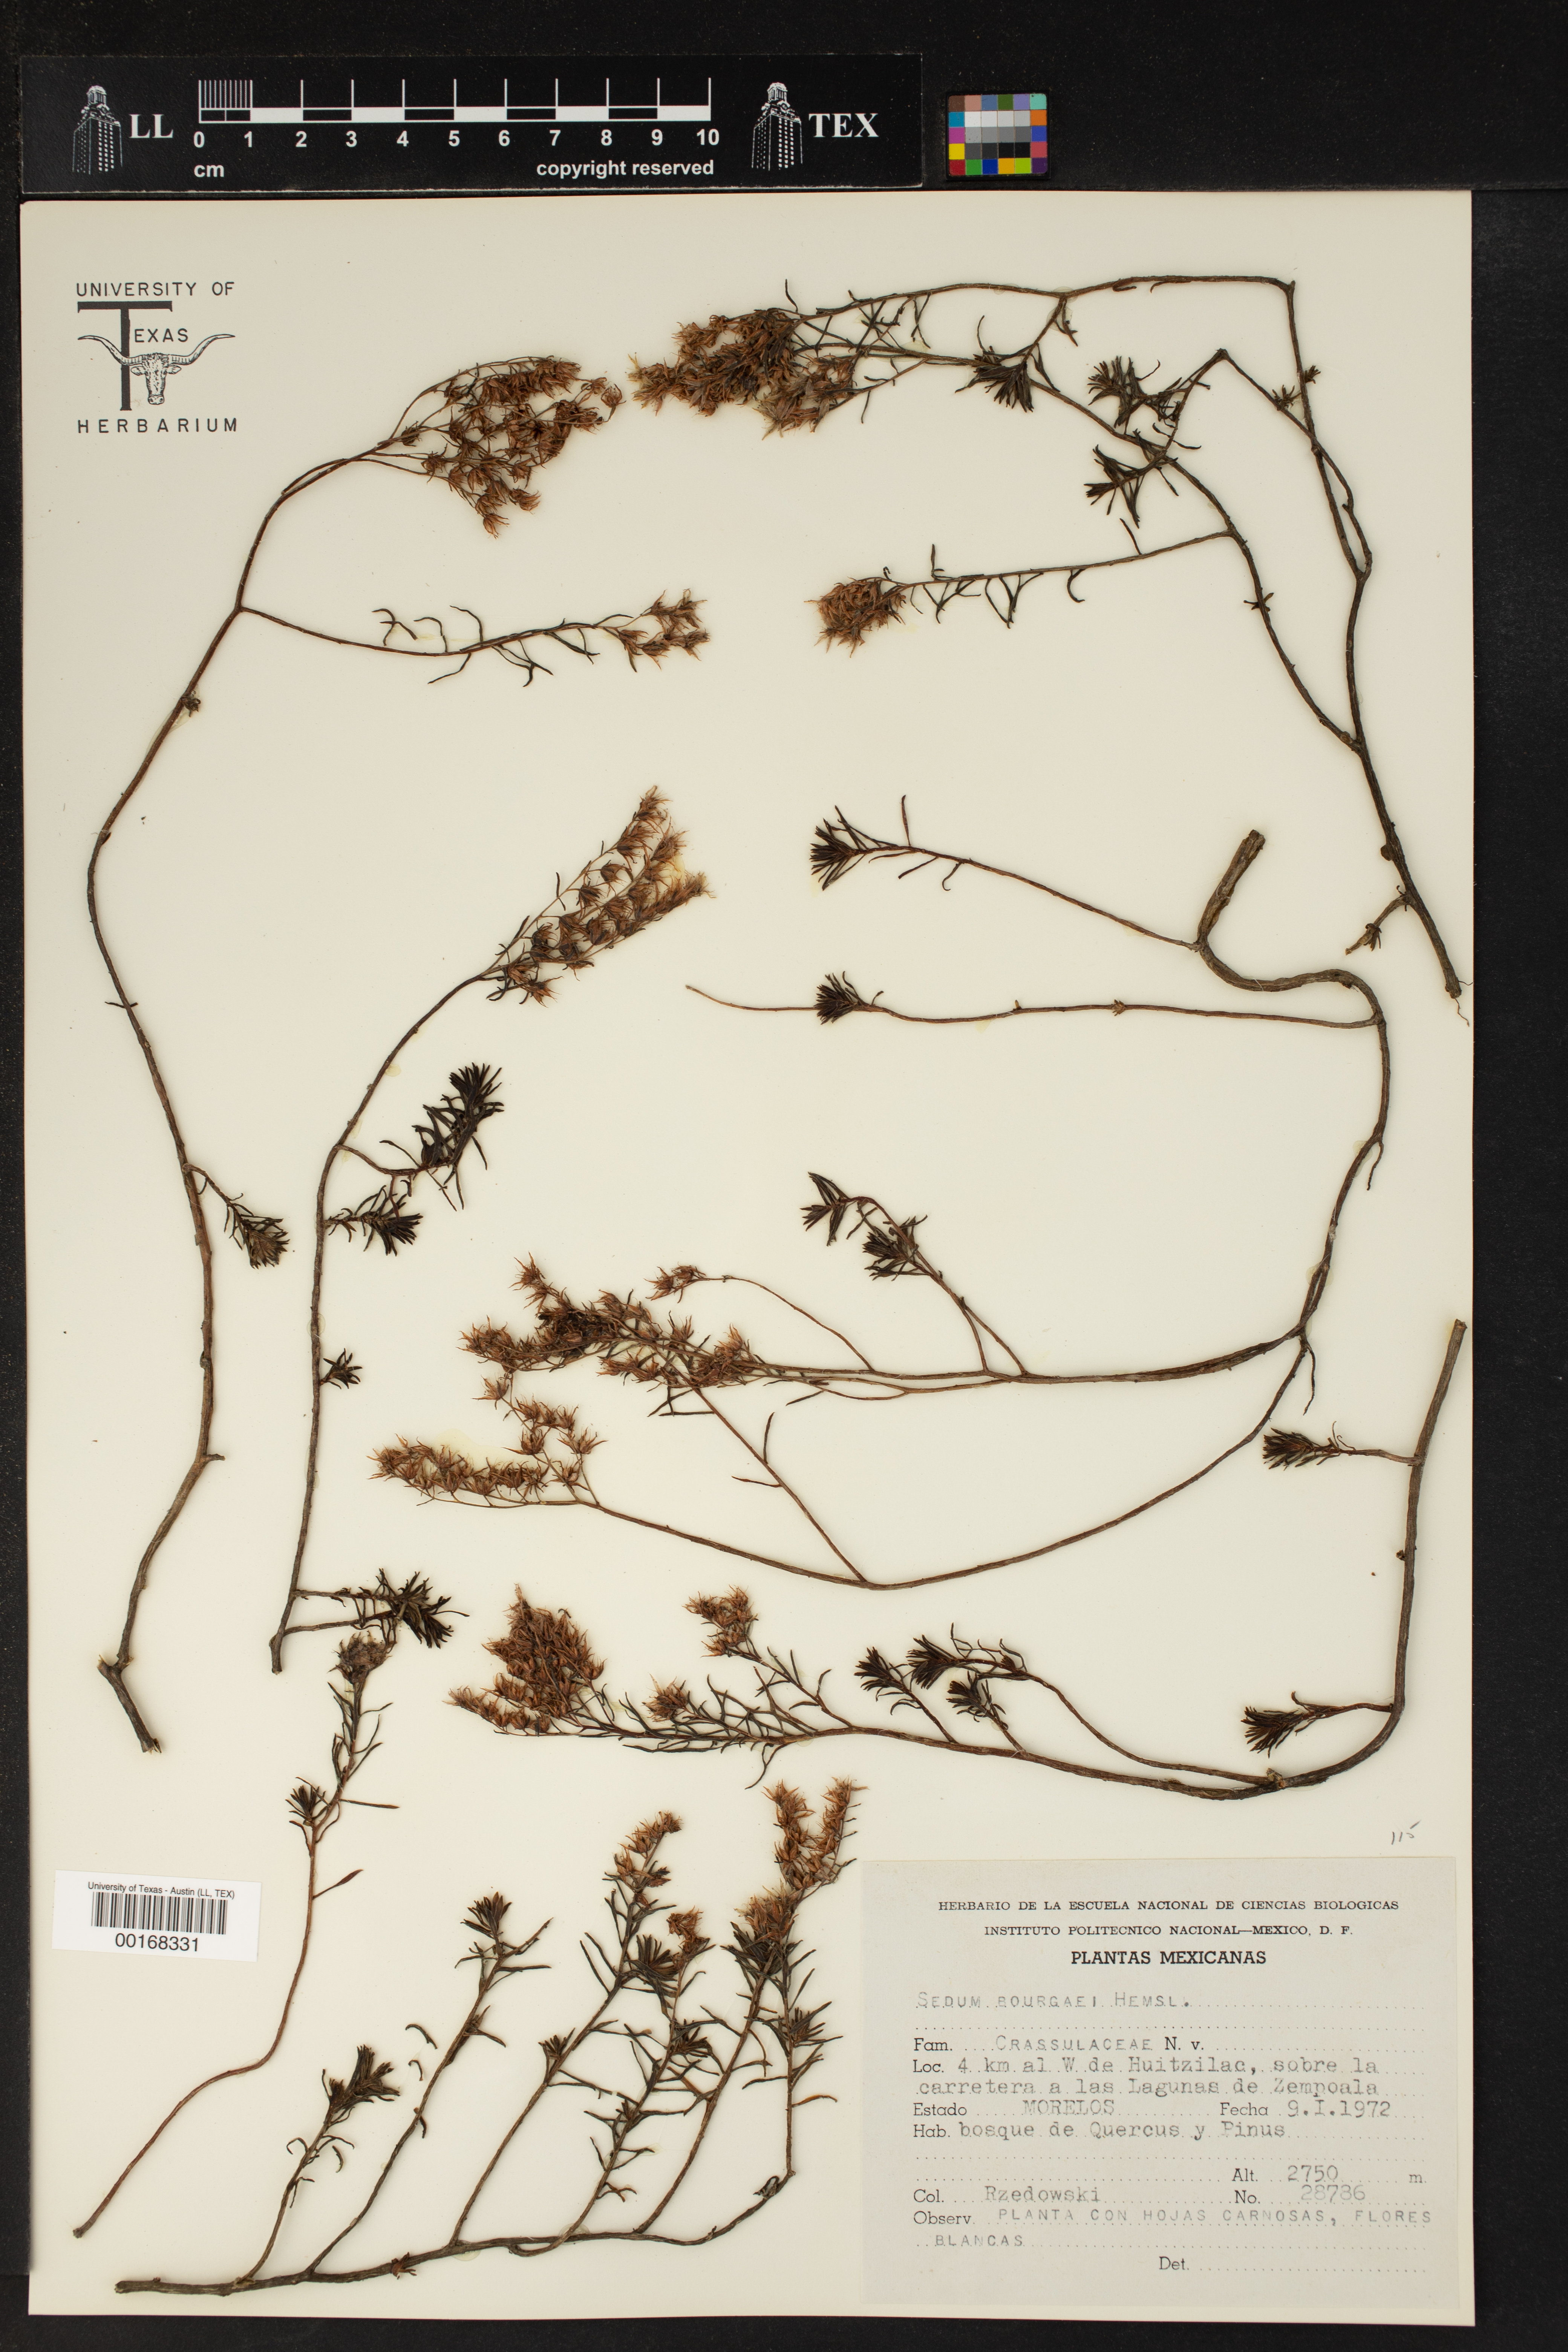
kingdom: Plantae
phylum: Tracheophyta
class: Magnoliopsida
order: Saxifragales
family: Crassulaceae
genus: Sedum
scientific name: Sedum bourgaei
